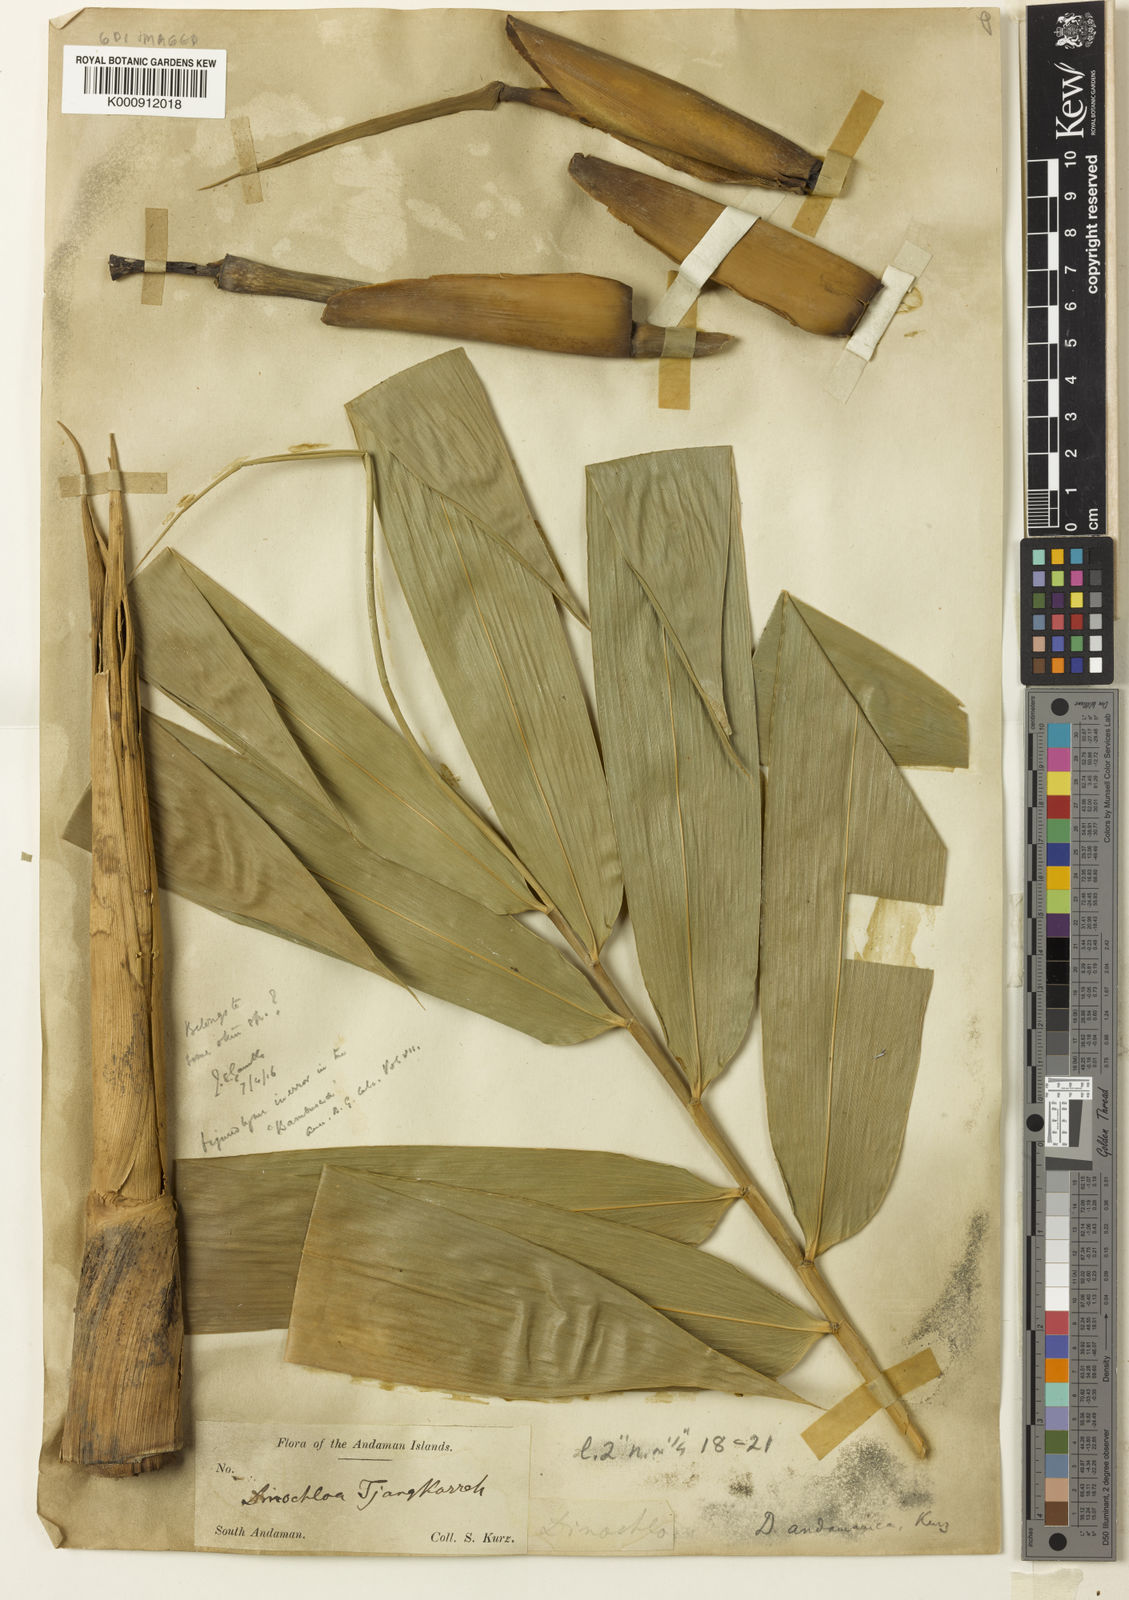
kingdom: Plantae
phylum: Tracheophyta
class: Liliopsida
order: Poales
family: Poaceae
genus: Dinochloa
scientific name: Dinochloa andamanica
